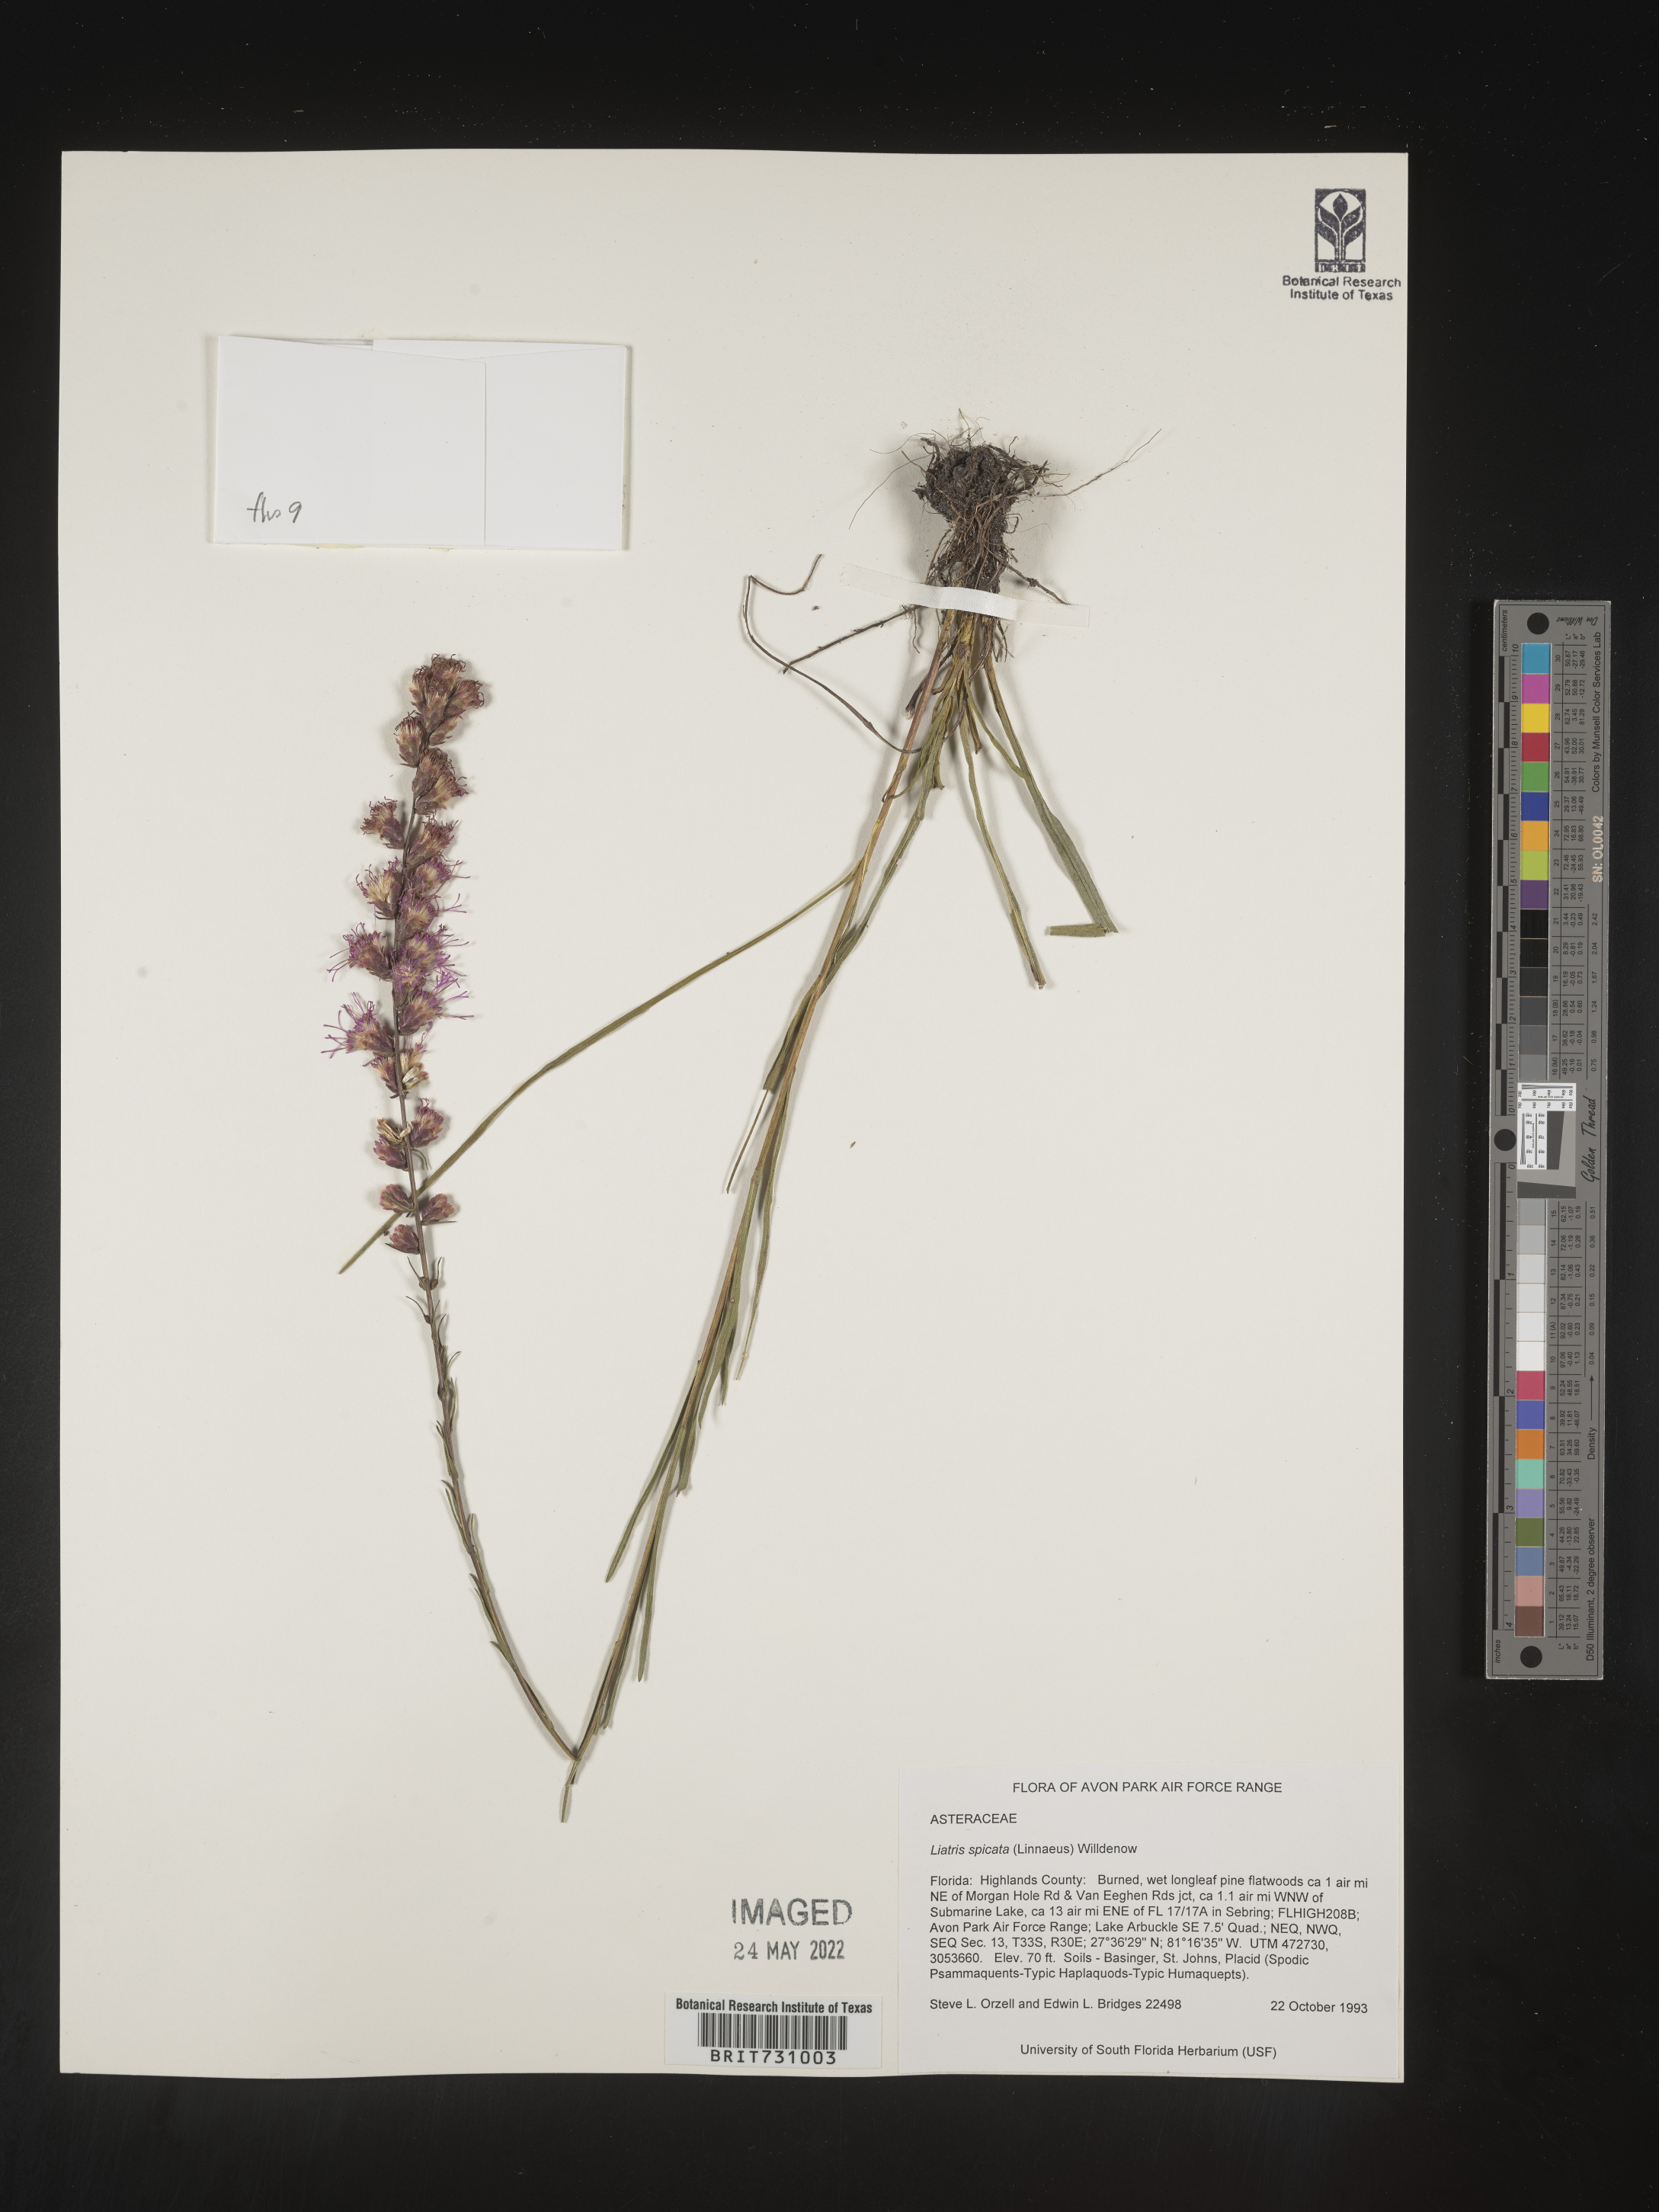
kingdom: Plantae
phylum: Tracheophyta
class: Magnoliopsida
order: Asterales
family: Asteraceae
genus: Liatris
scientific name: Liatris spicata
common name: Florist gayfeather
